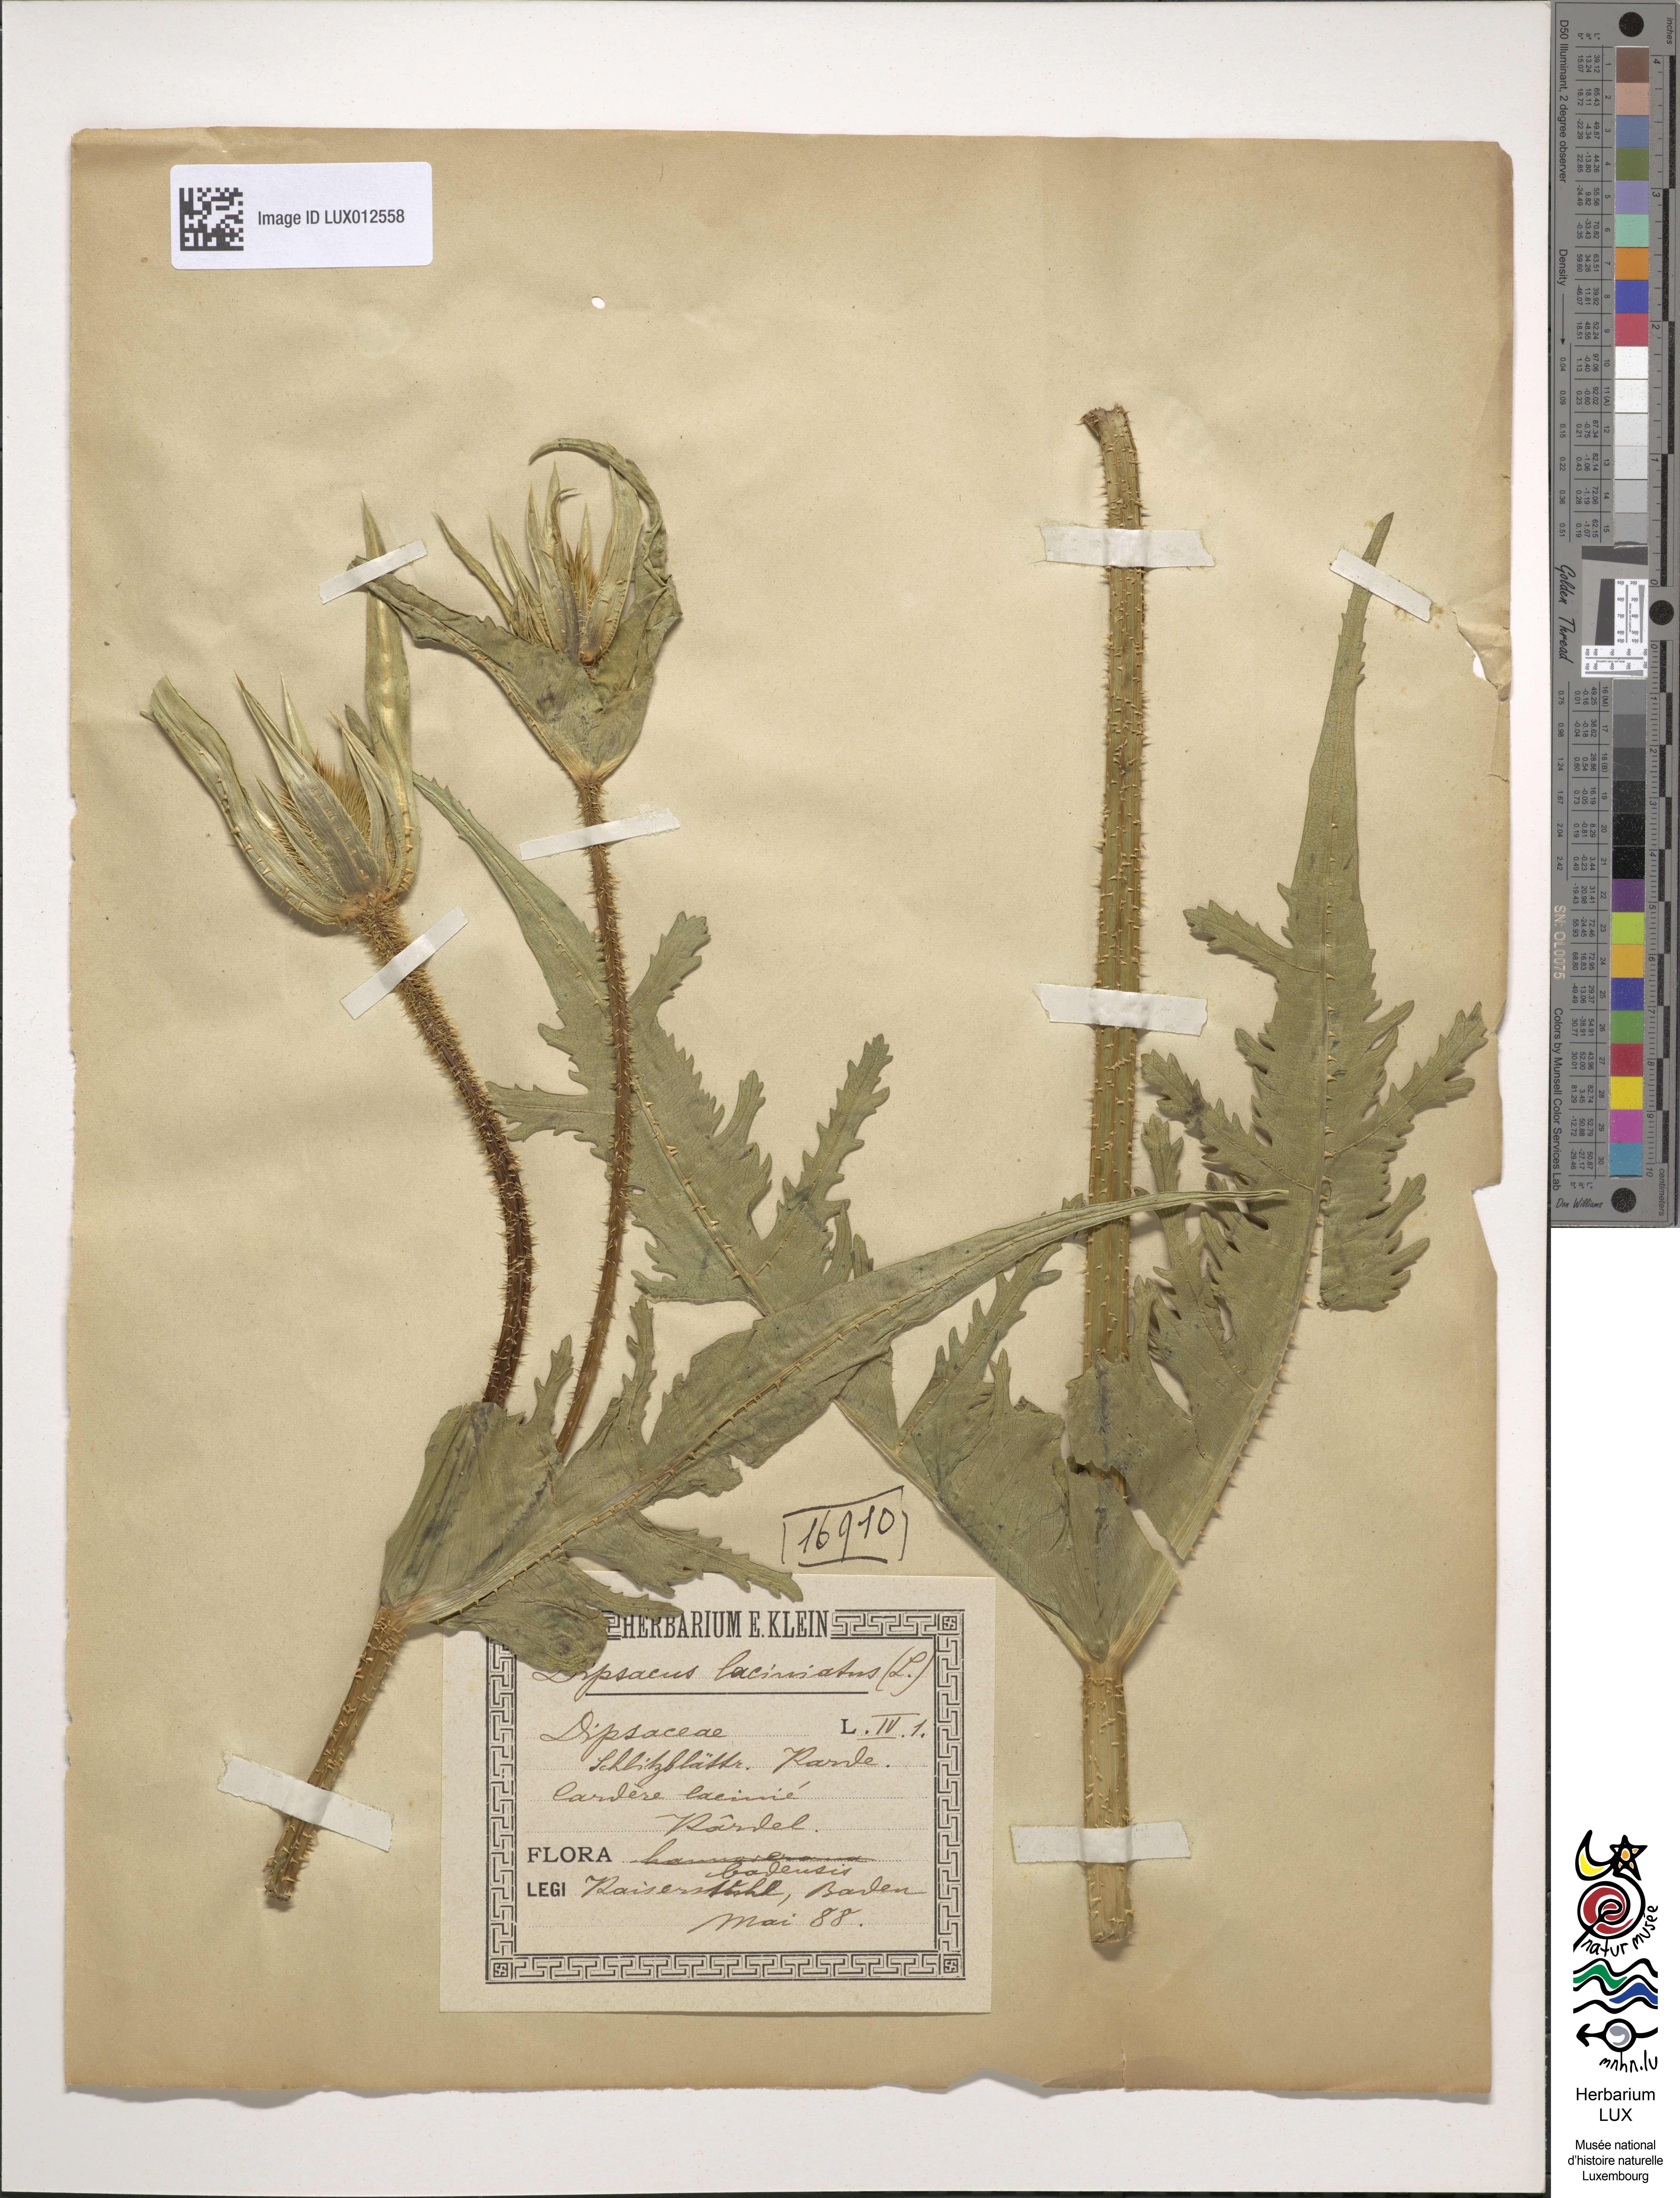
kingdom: Plantae
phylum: Tracheophyta
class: Magnoliopsida
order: Dipsacales
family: Caprifoliaceae
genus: Dipsacus
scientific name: Dipsacus laciniatus
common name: Cut-leaved teasel
